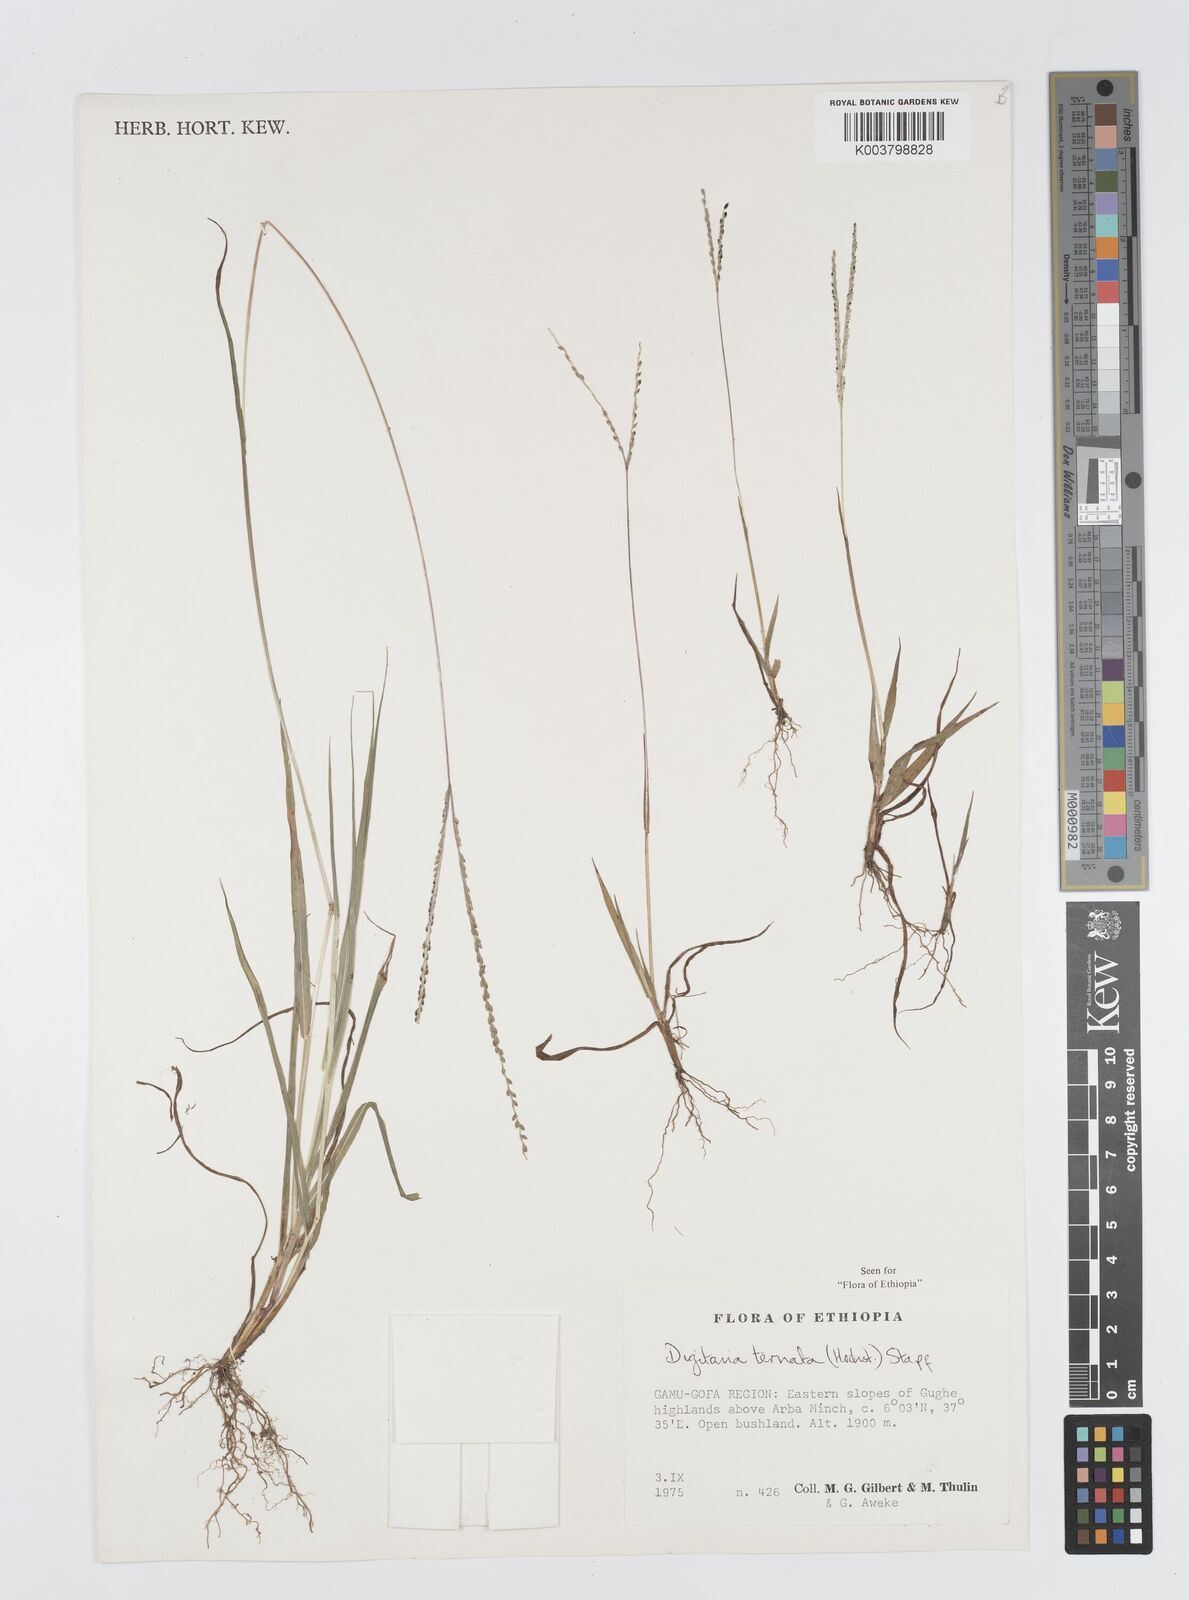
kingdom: Plantae
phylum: Tracheophyta
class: Liliopsida
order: Poales
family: Poaceae
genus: Digitaria
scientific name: Digitaria ternata
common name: Blackseed crabgrass
